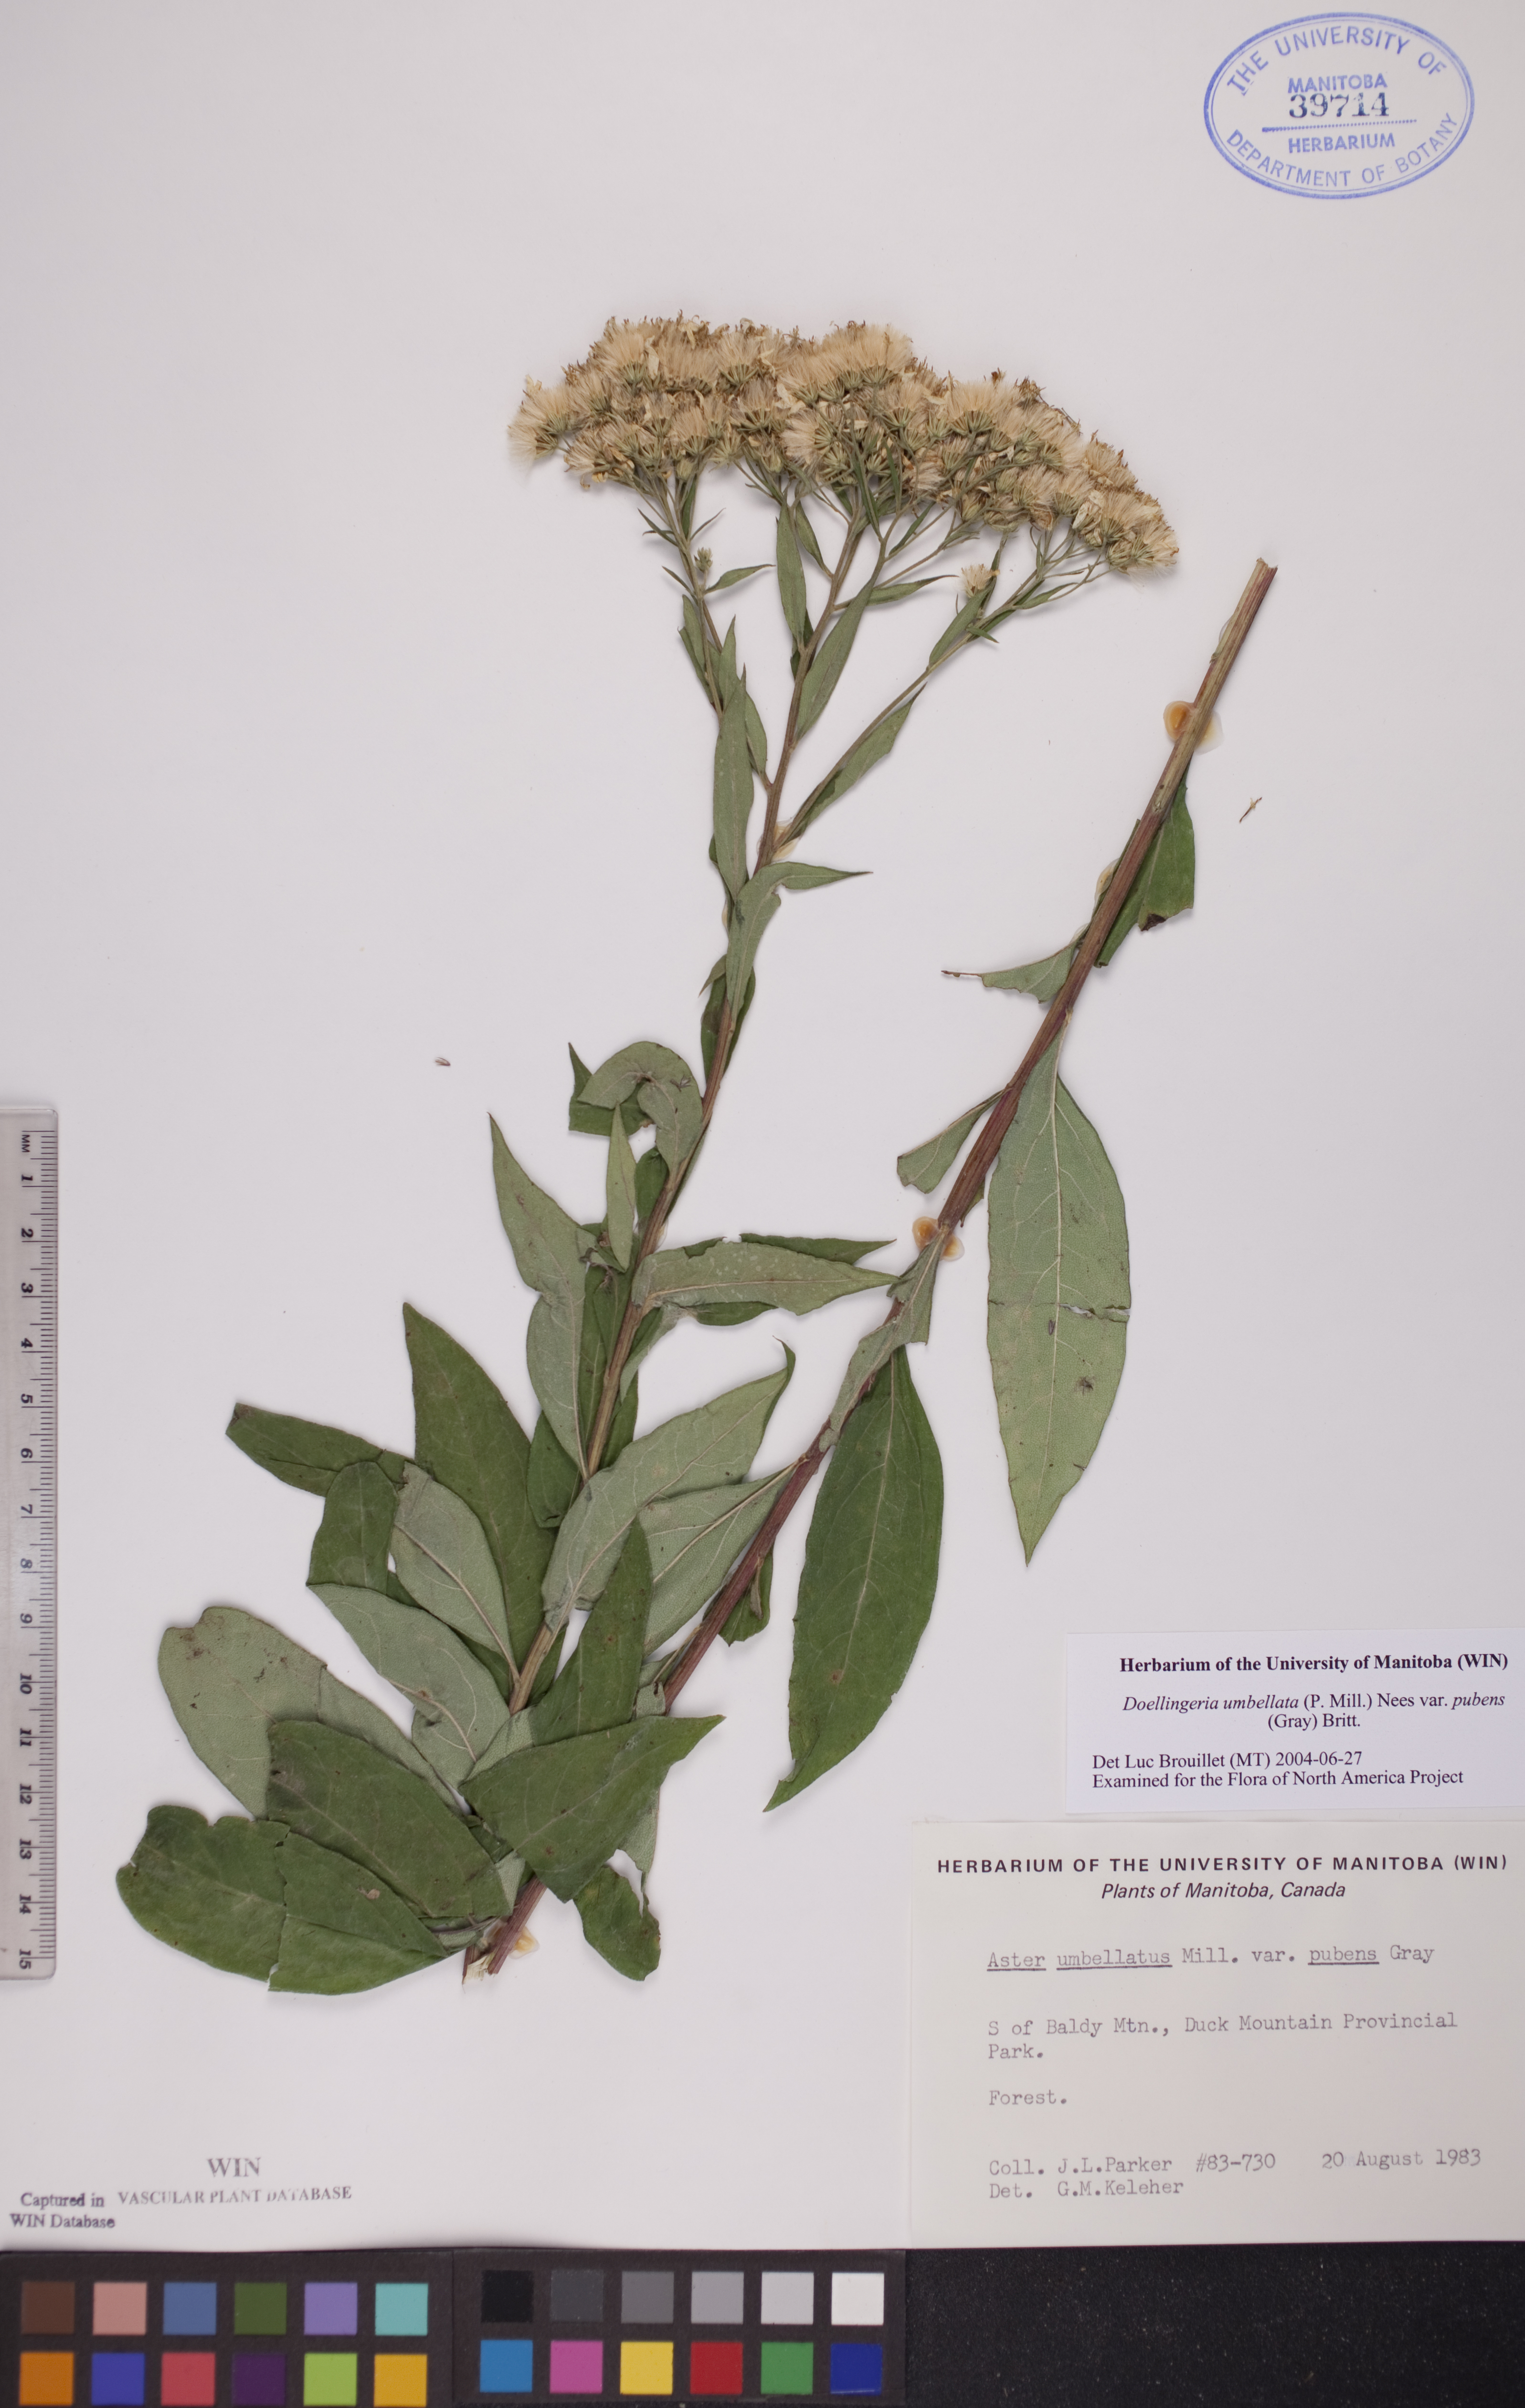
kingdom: Plantae
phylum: Tracheophyta
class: Magnoliopsida
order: Asterales
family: Asteraceae
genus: Doellingeria
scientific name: Doellingeria umbellata
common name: Flat-top white aster
